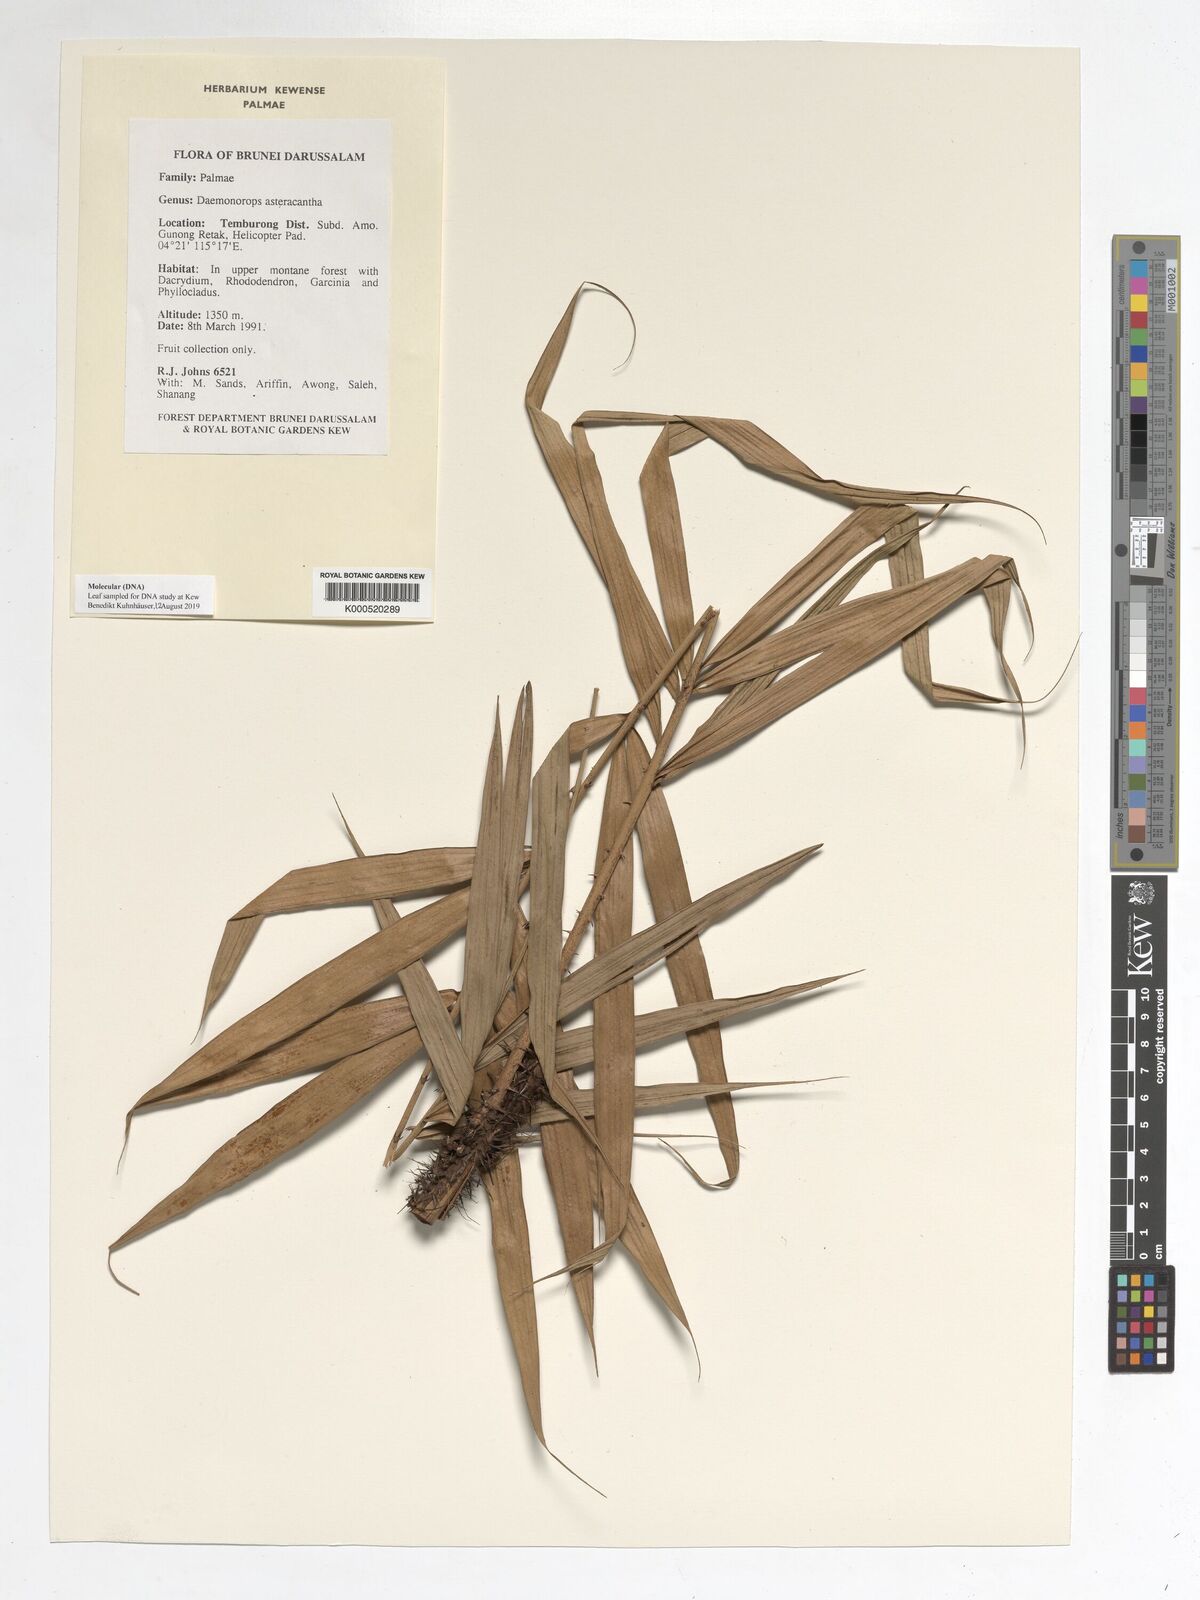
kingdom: Plantae
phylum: Tracheophyta
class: Liliopsida
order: Arecales
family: Arecaceae
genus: Calamus
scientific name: Calamus asteracanthus
